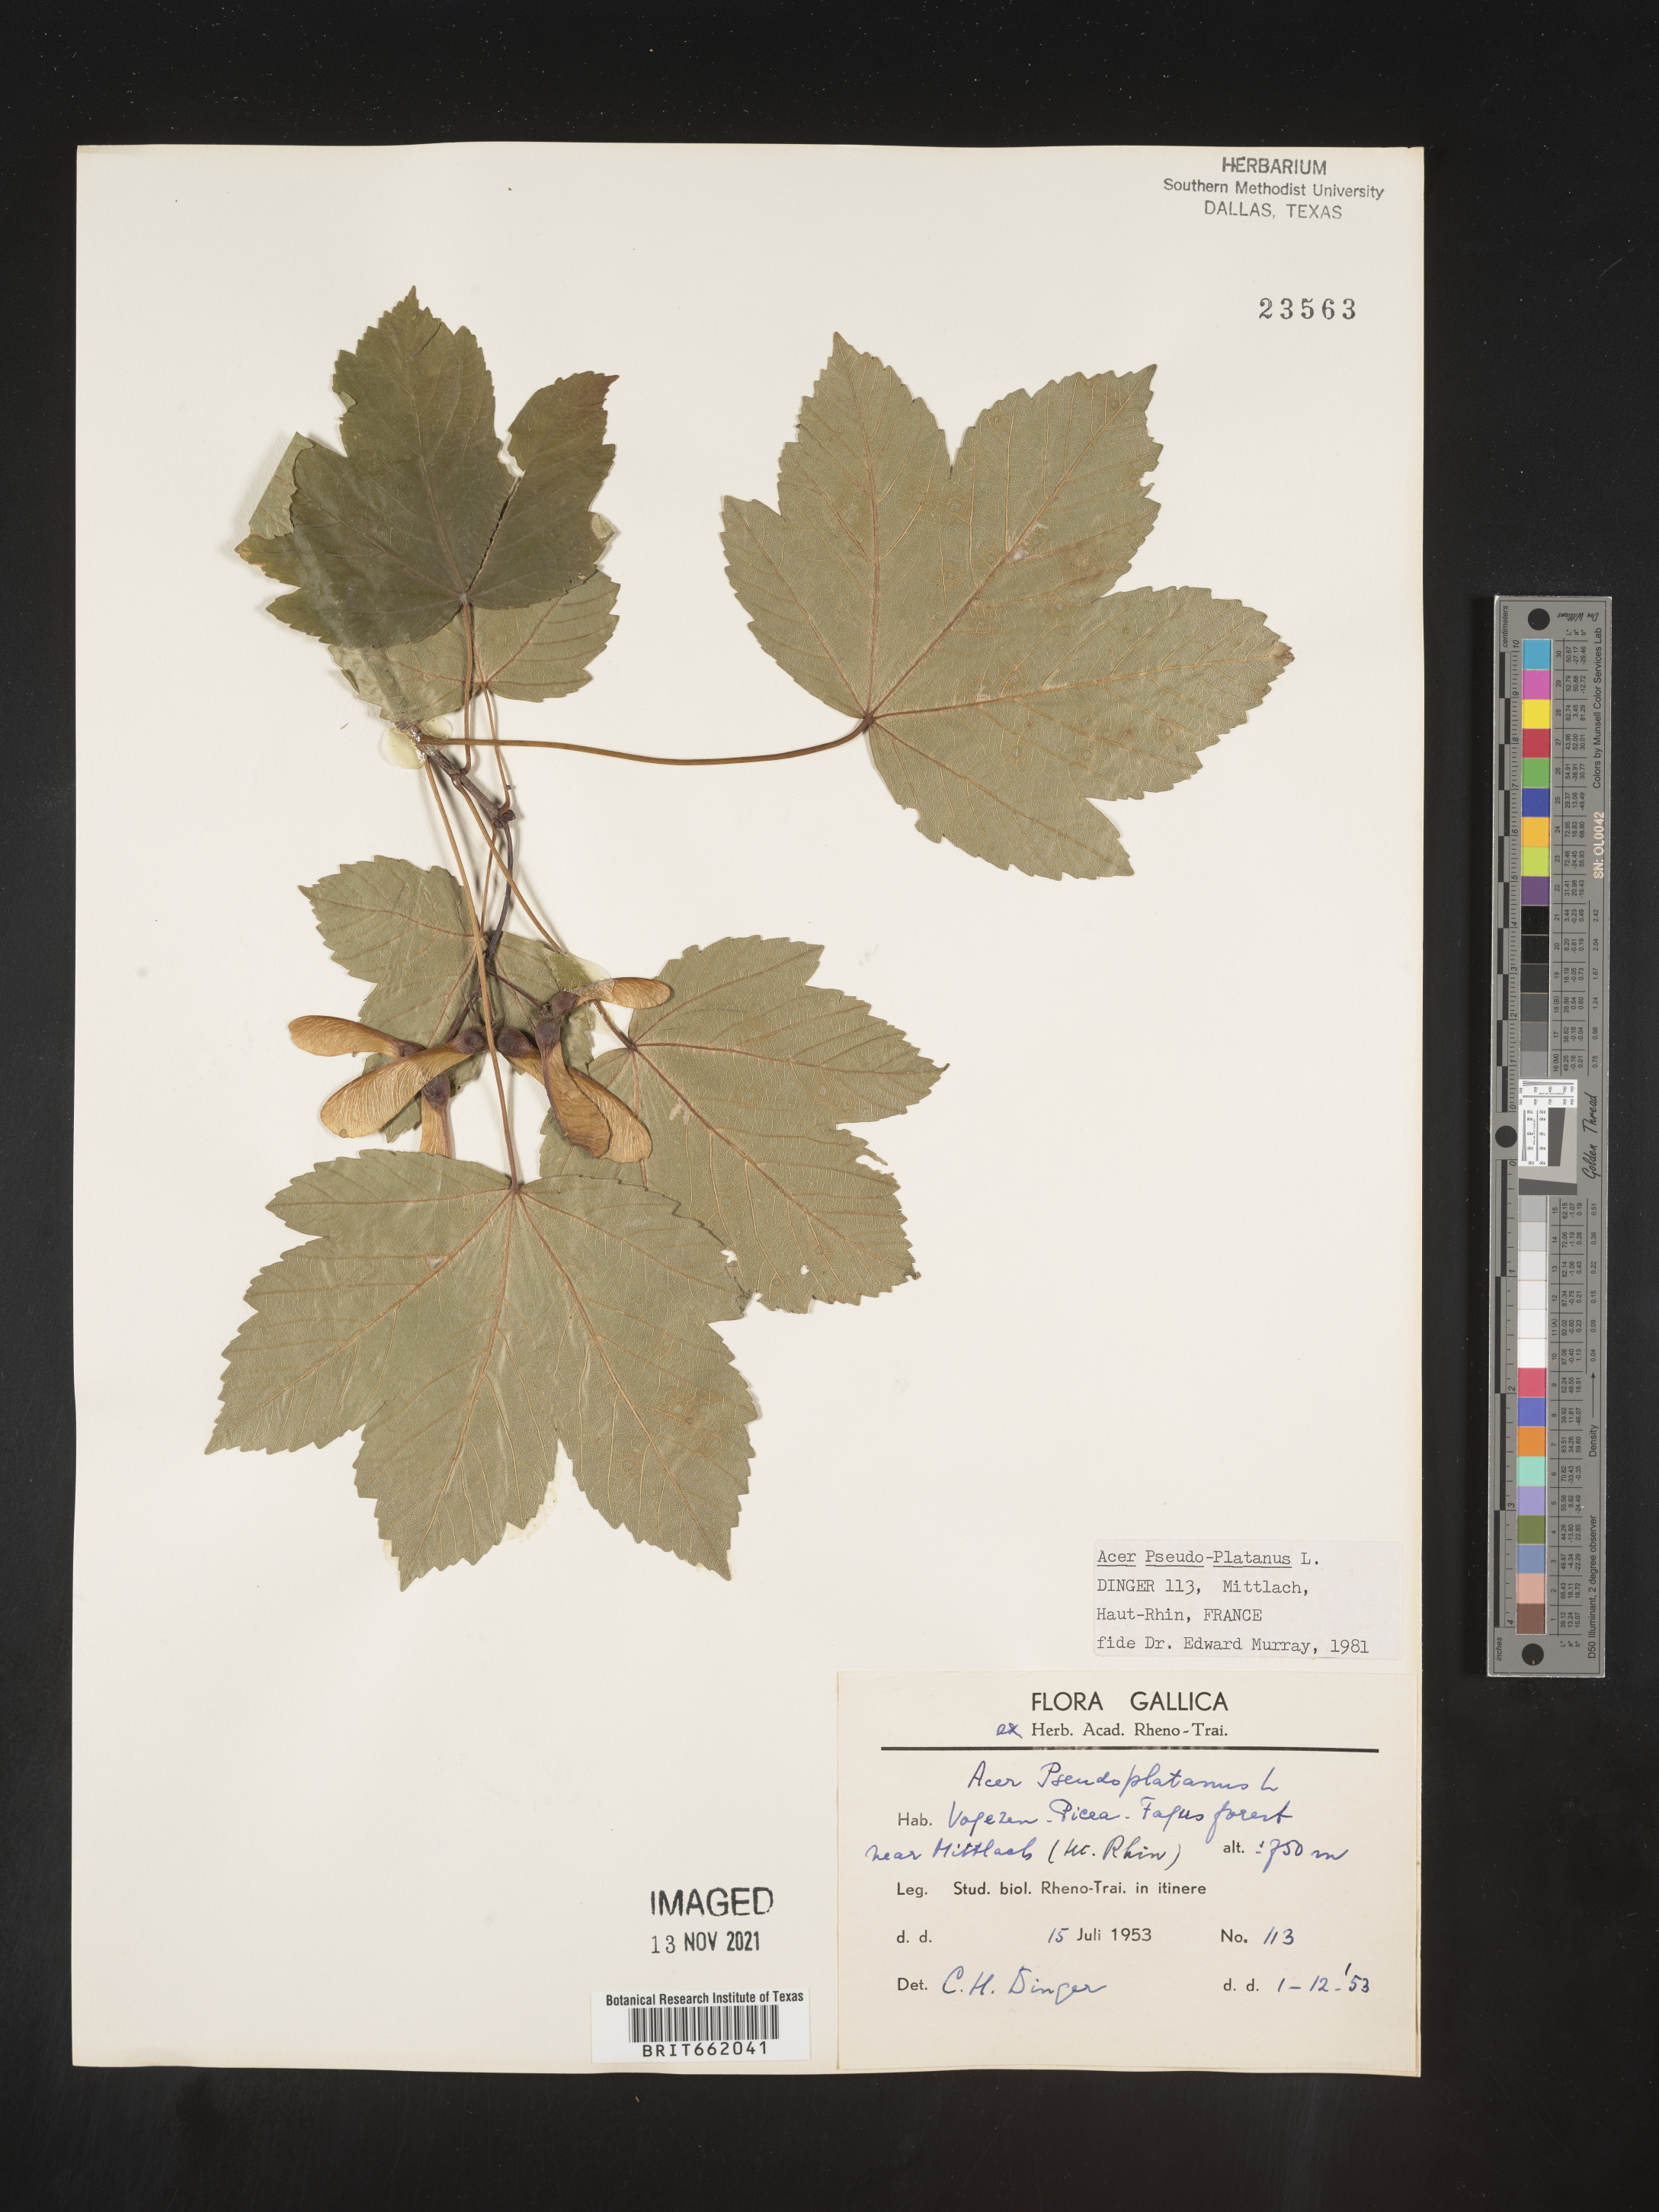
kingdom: Plantae
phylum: Tracheophyta
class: Magnoliopsida
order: Sapindales
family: Sapindaceae
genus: Acer
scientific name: Acer
